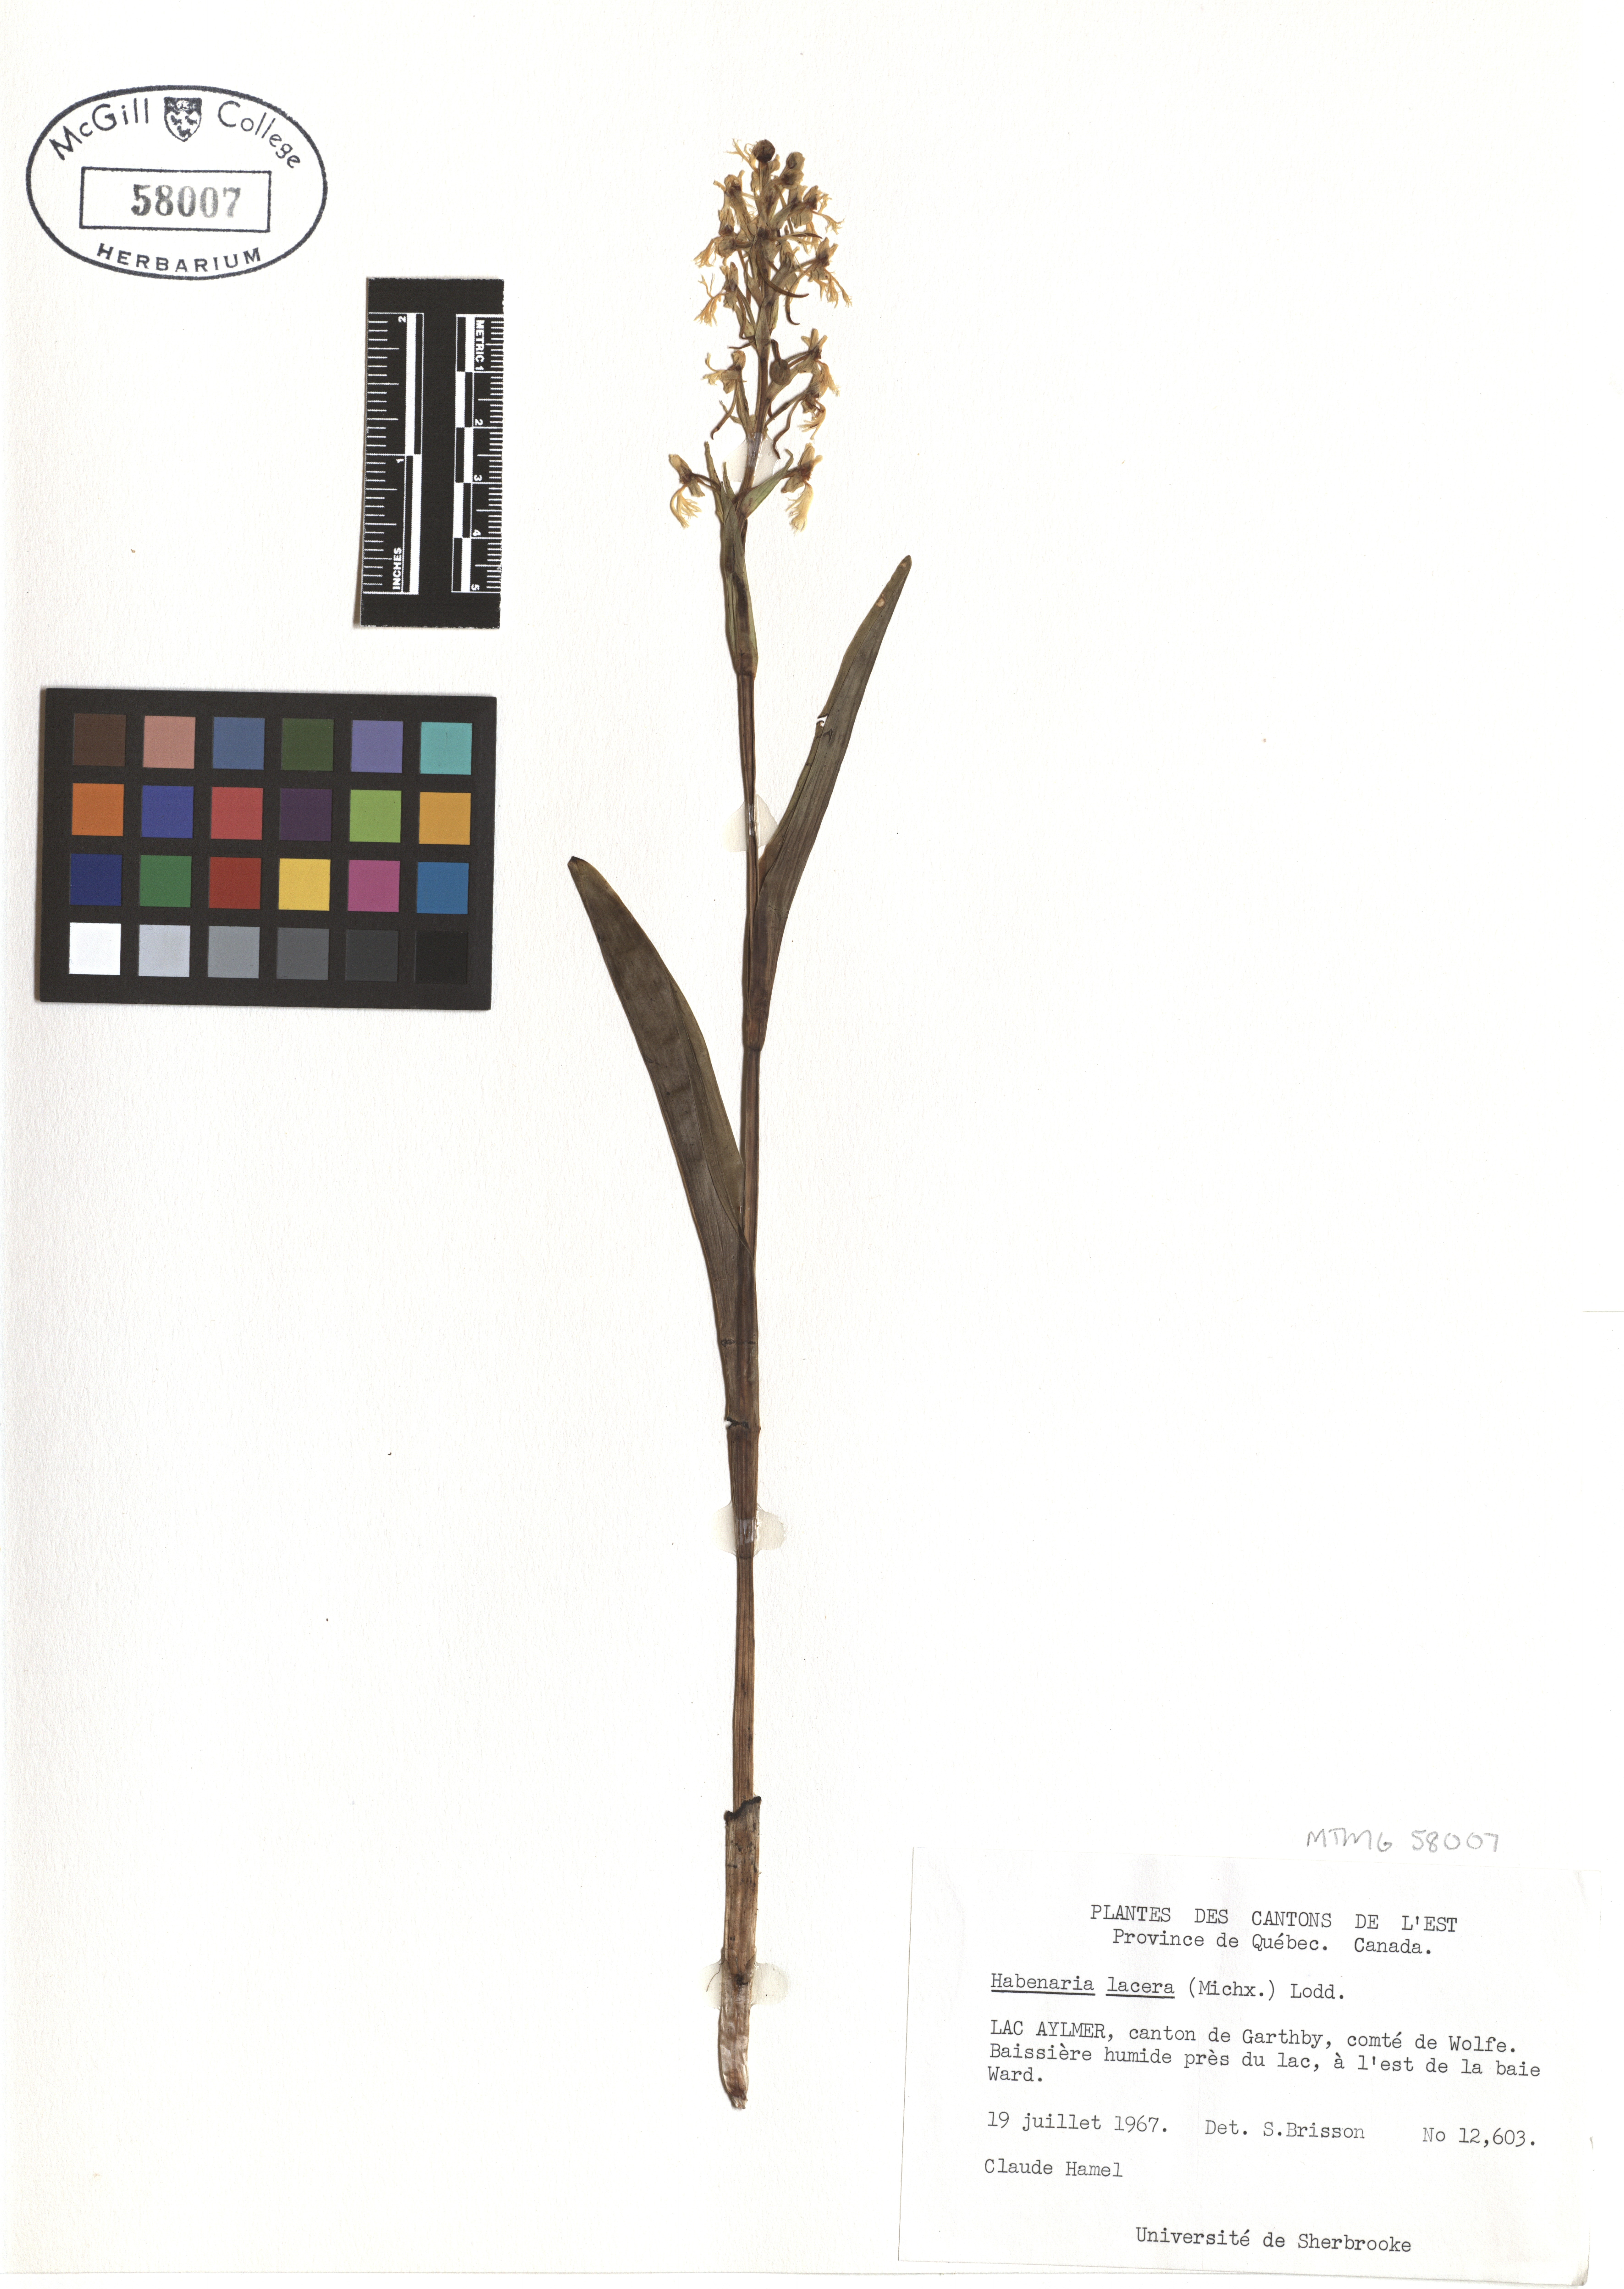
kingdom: Plantae
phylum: Tracheophyta
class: Liliopsida
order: Asparagales
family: Orchidaceae
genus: Platanthera
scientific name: Platanthera lacera
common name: Green fringed orchid
